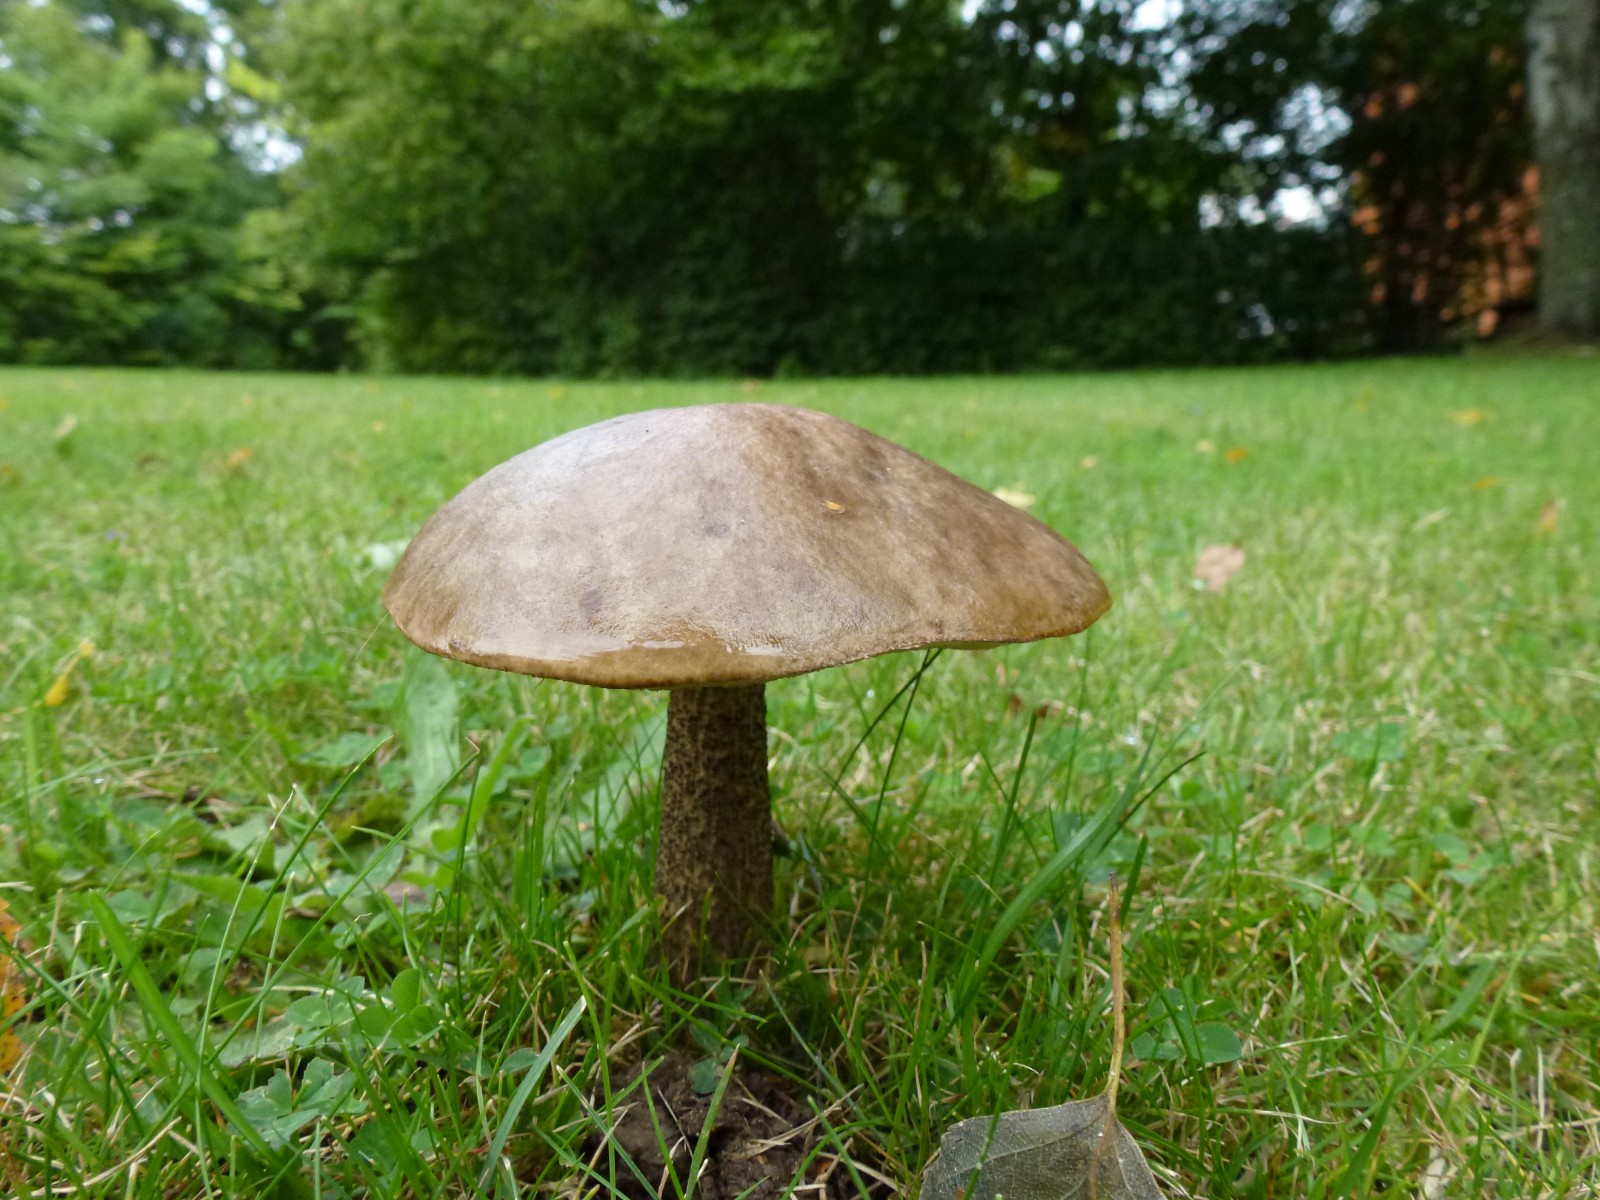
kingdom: Fungi
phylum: Basidiomycota
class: Agaricomycetes
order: Boletales
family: Boletaceae
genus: Leccinum
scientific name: Leccinum
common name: skælrørhat
